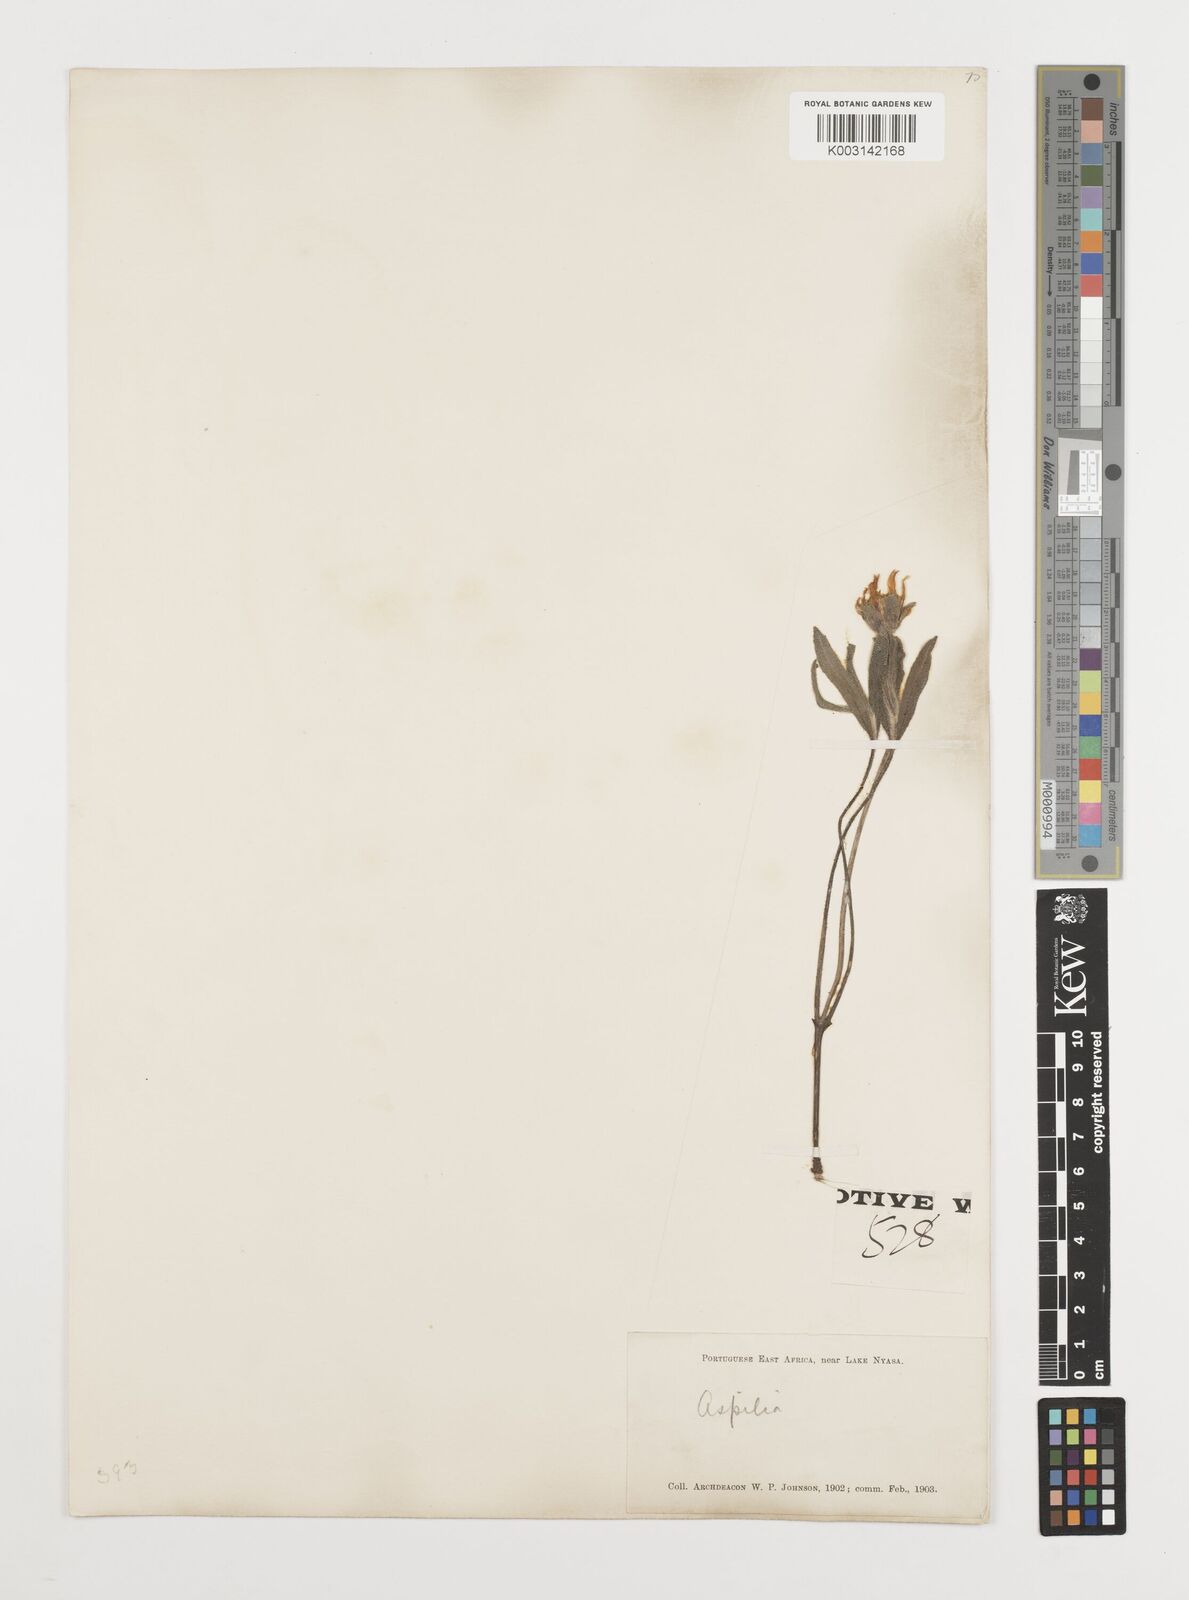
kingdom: Plantae
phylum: Tracheophyta
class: Magnoliopsida
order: Asterales
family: Asteraceae
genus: Aspilia
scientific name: Aspilia natalensis
